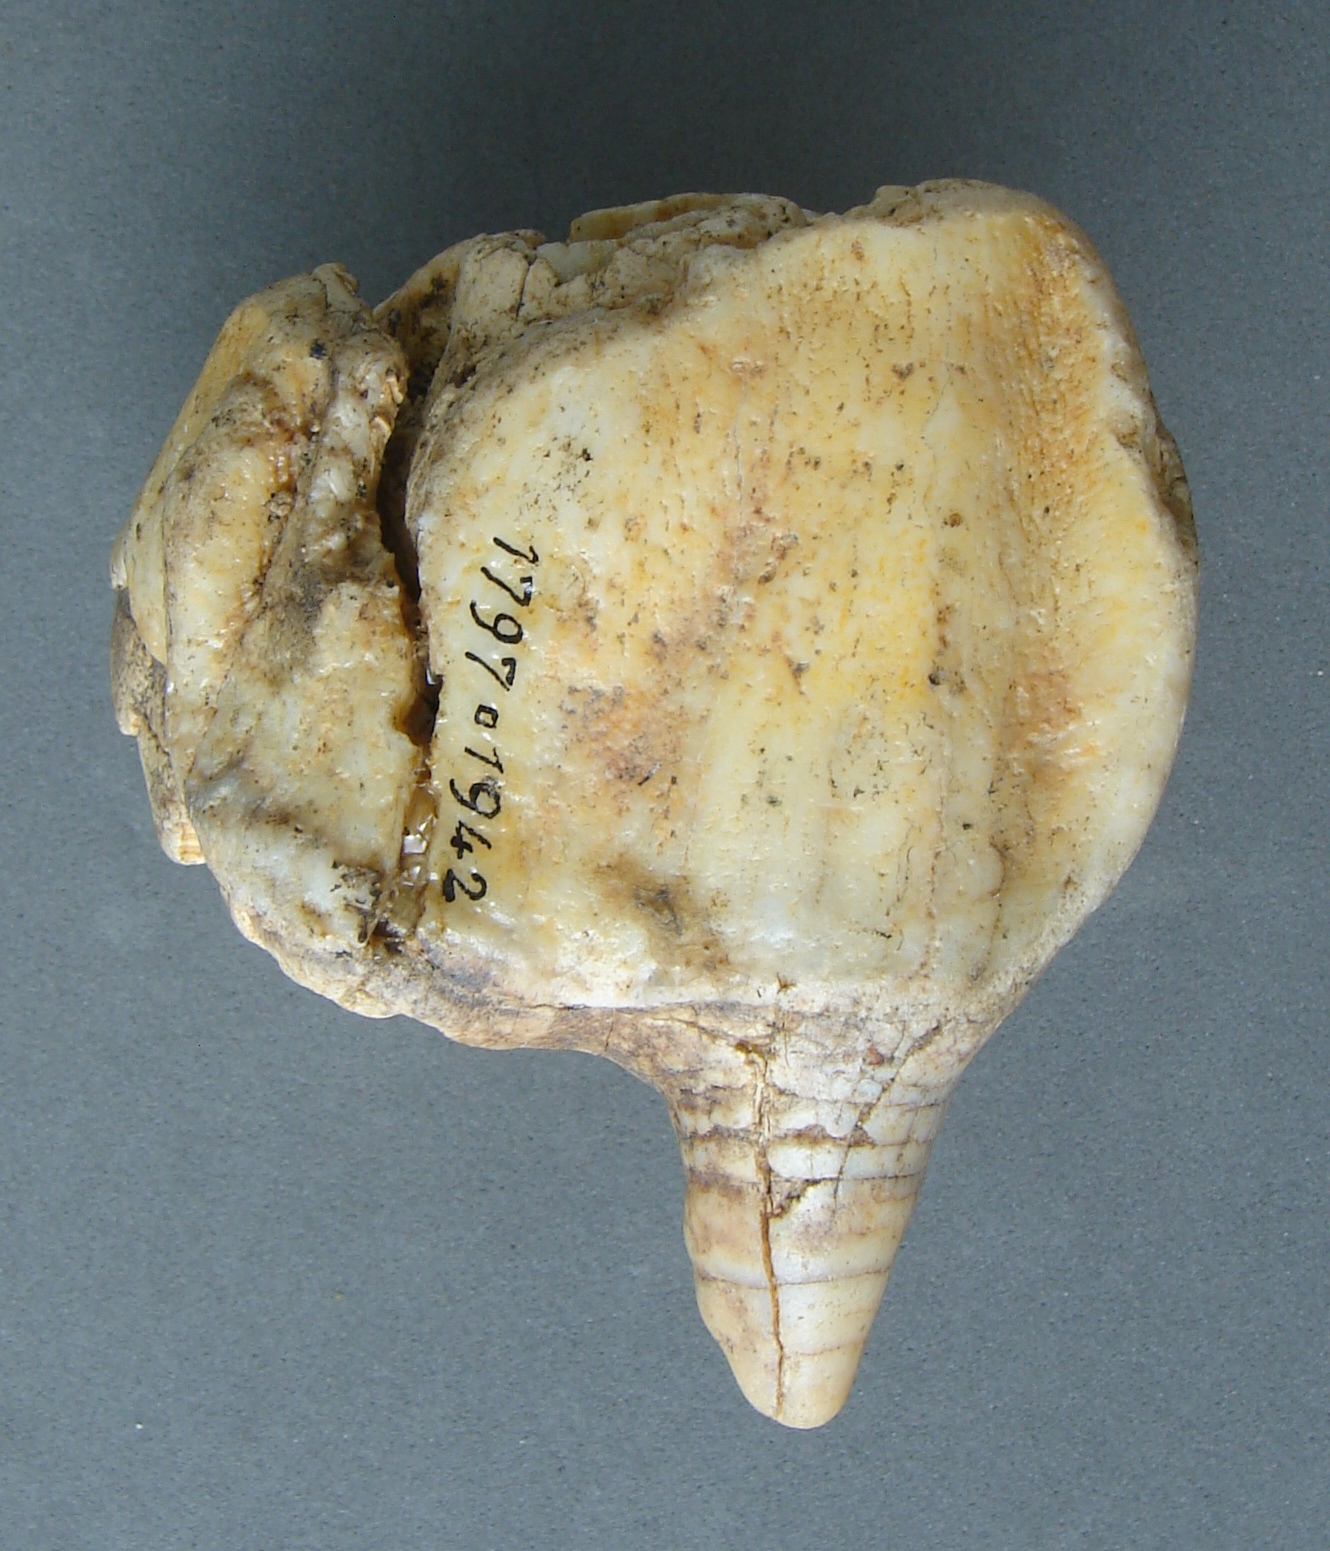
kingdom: Animalia
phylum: Chordata
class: Mammalia
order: Perissodactyla
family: Rhinocerotidae
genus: Rhinoceros
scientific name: Rhinoceros
